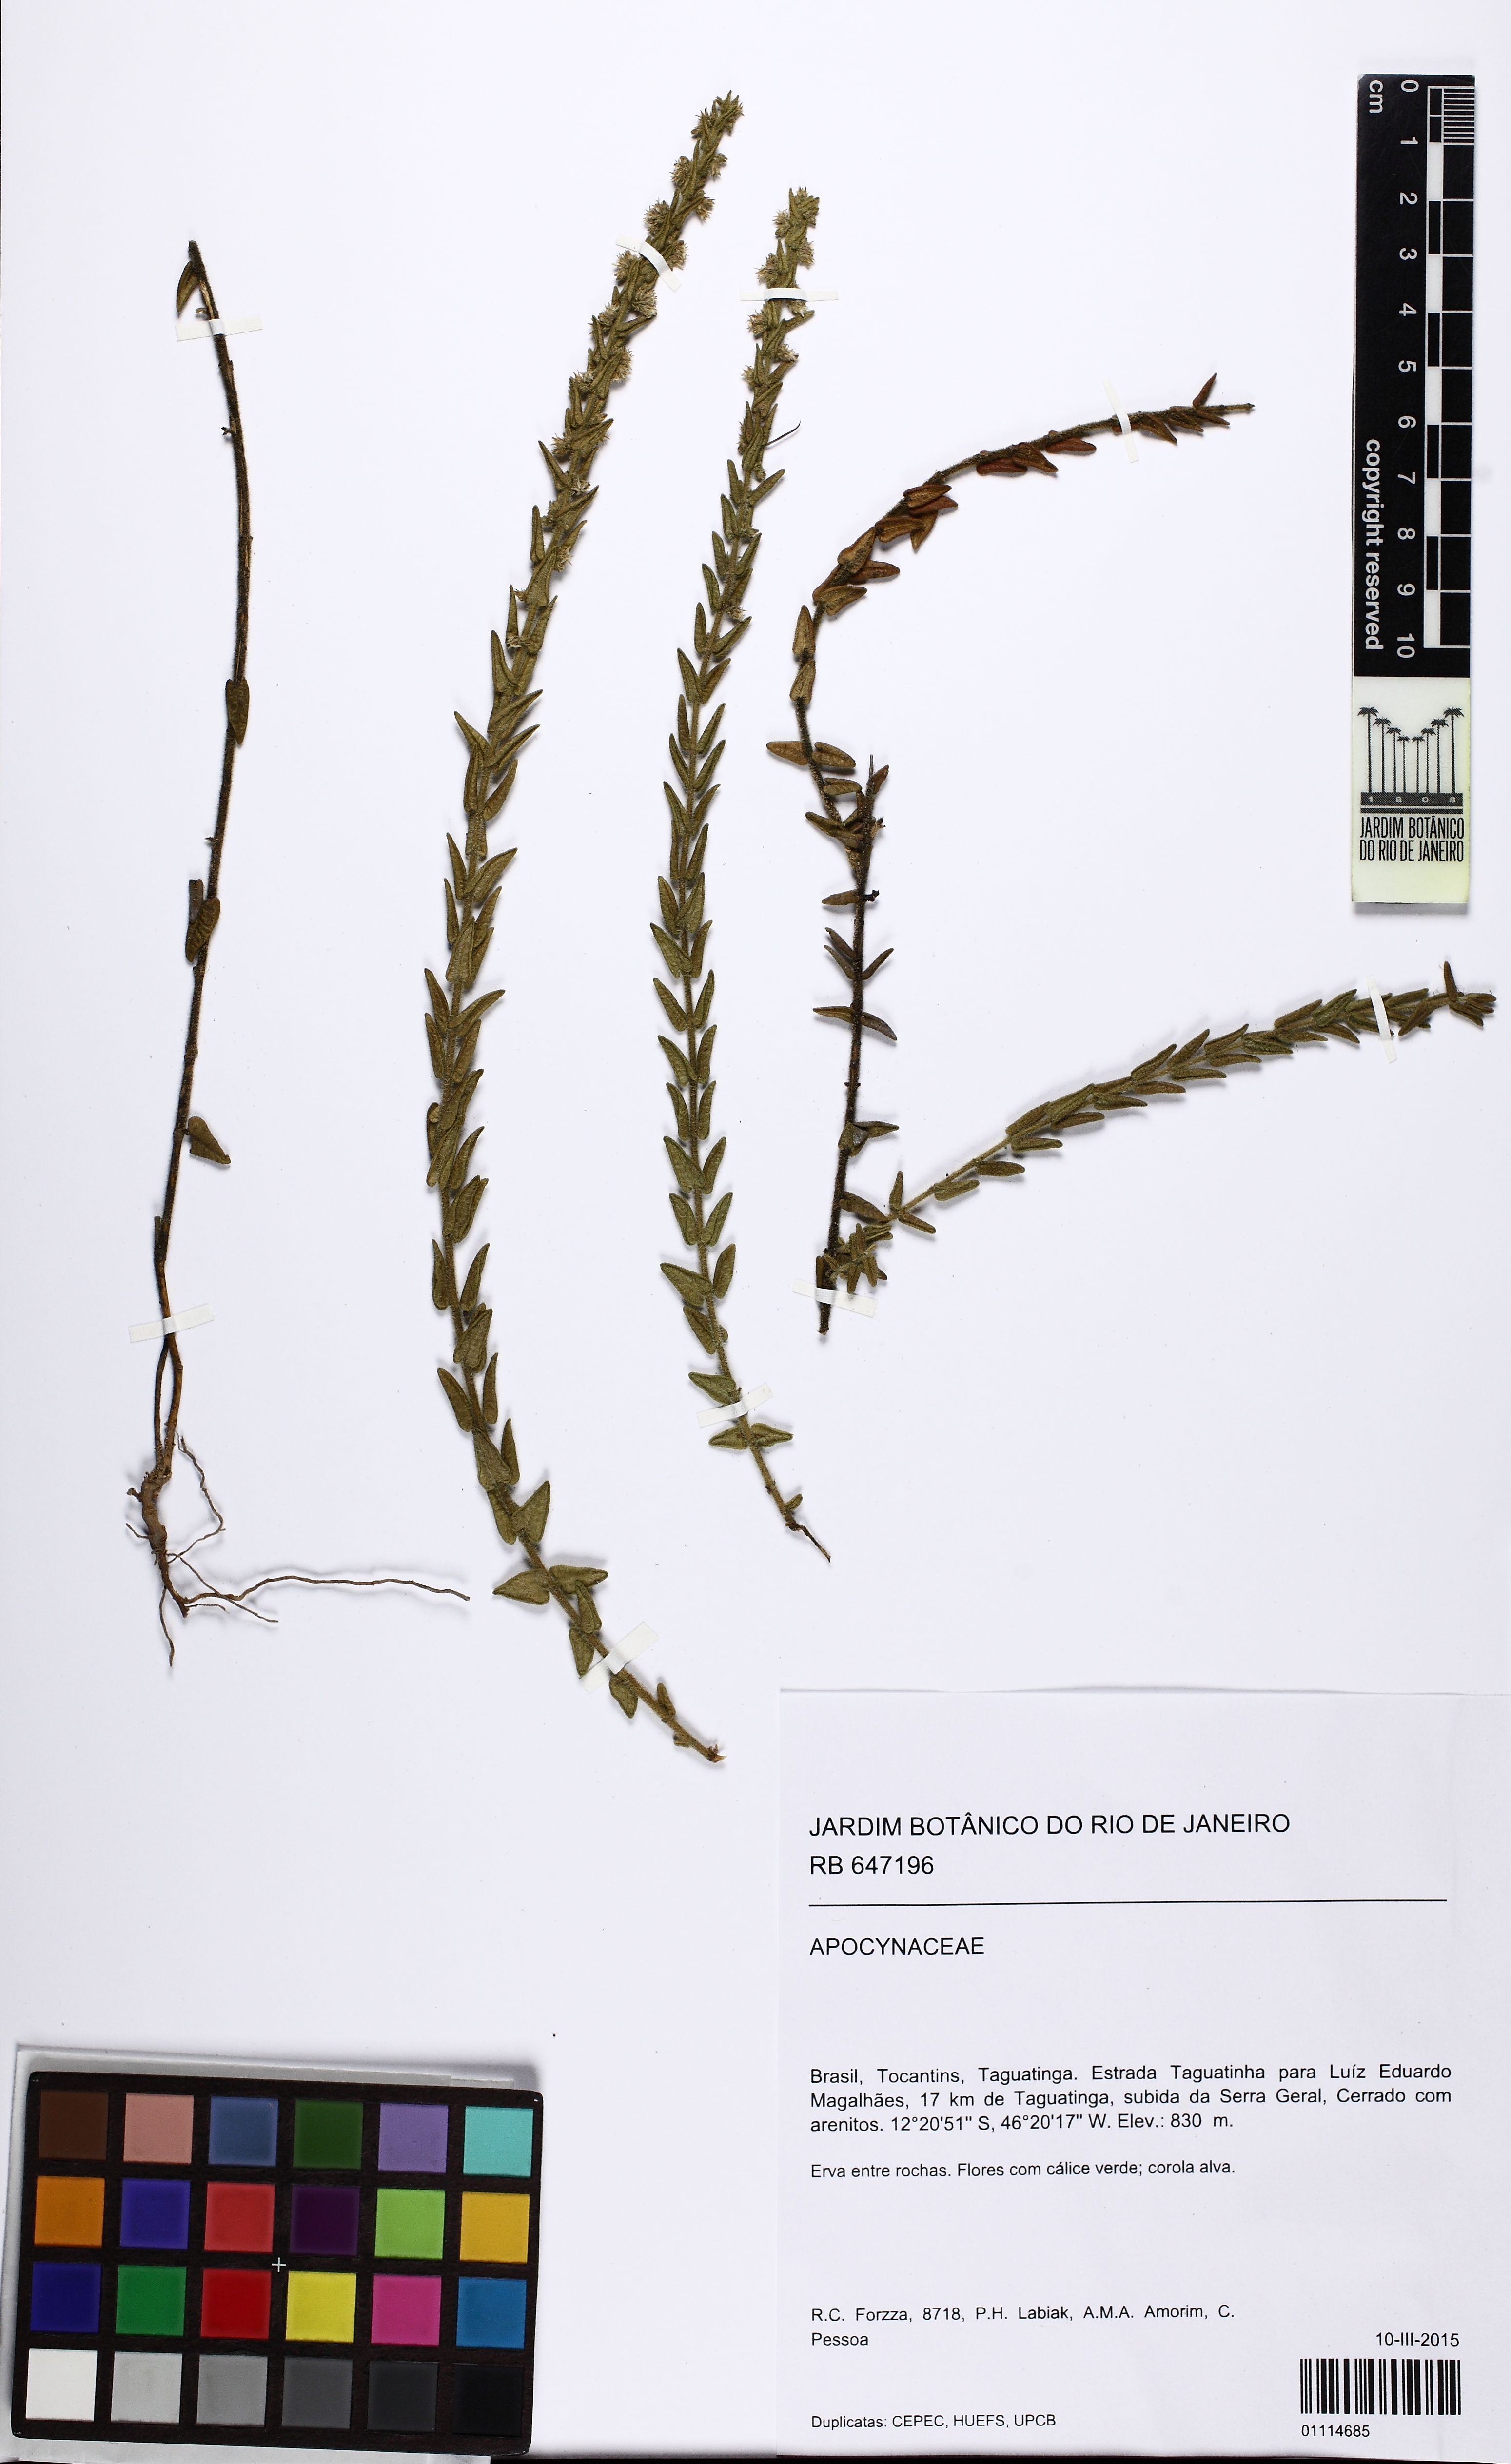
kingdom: Plantae
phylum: Tracheophyta
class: Magnoliopsida
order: Gentianales
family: Apocynaceae
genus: Minaria
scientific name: Minaria
